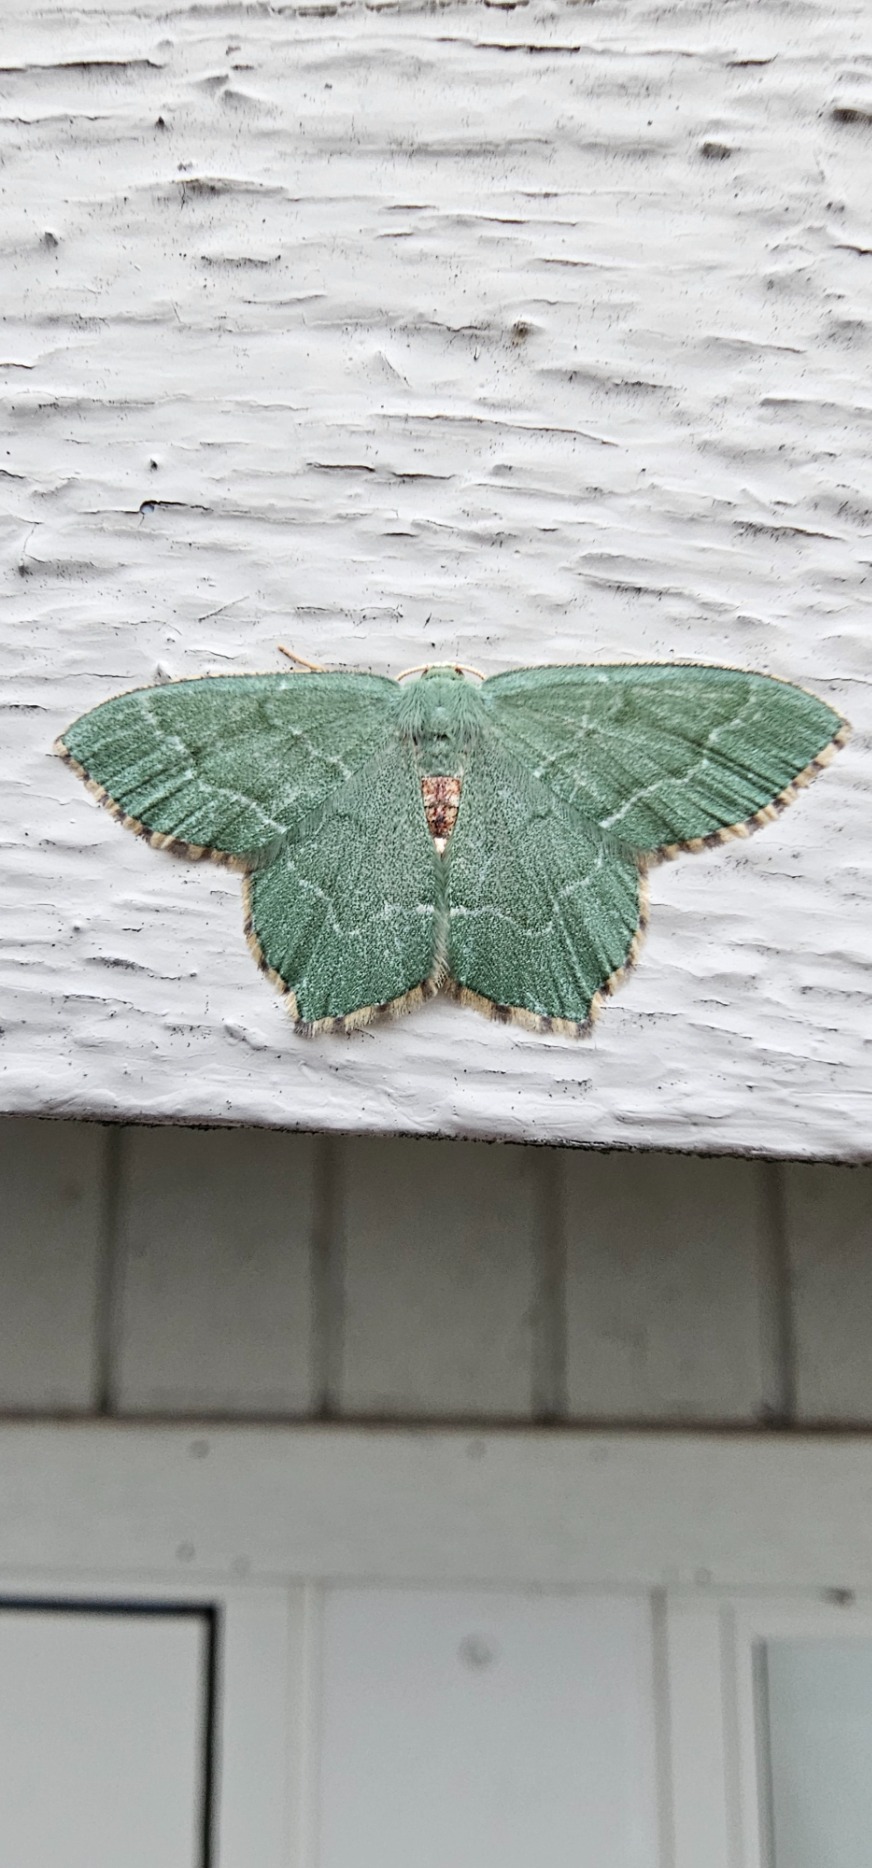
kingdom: Animalia
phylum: Arthropoda
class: Insecta
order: Lepidoptera
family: Geometridae
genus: Hemithea
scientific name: Hemithea aestivaria
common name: Lundmåler
